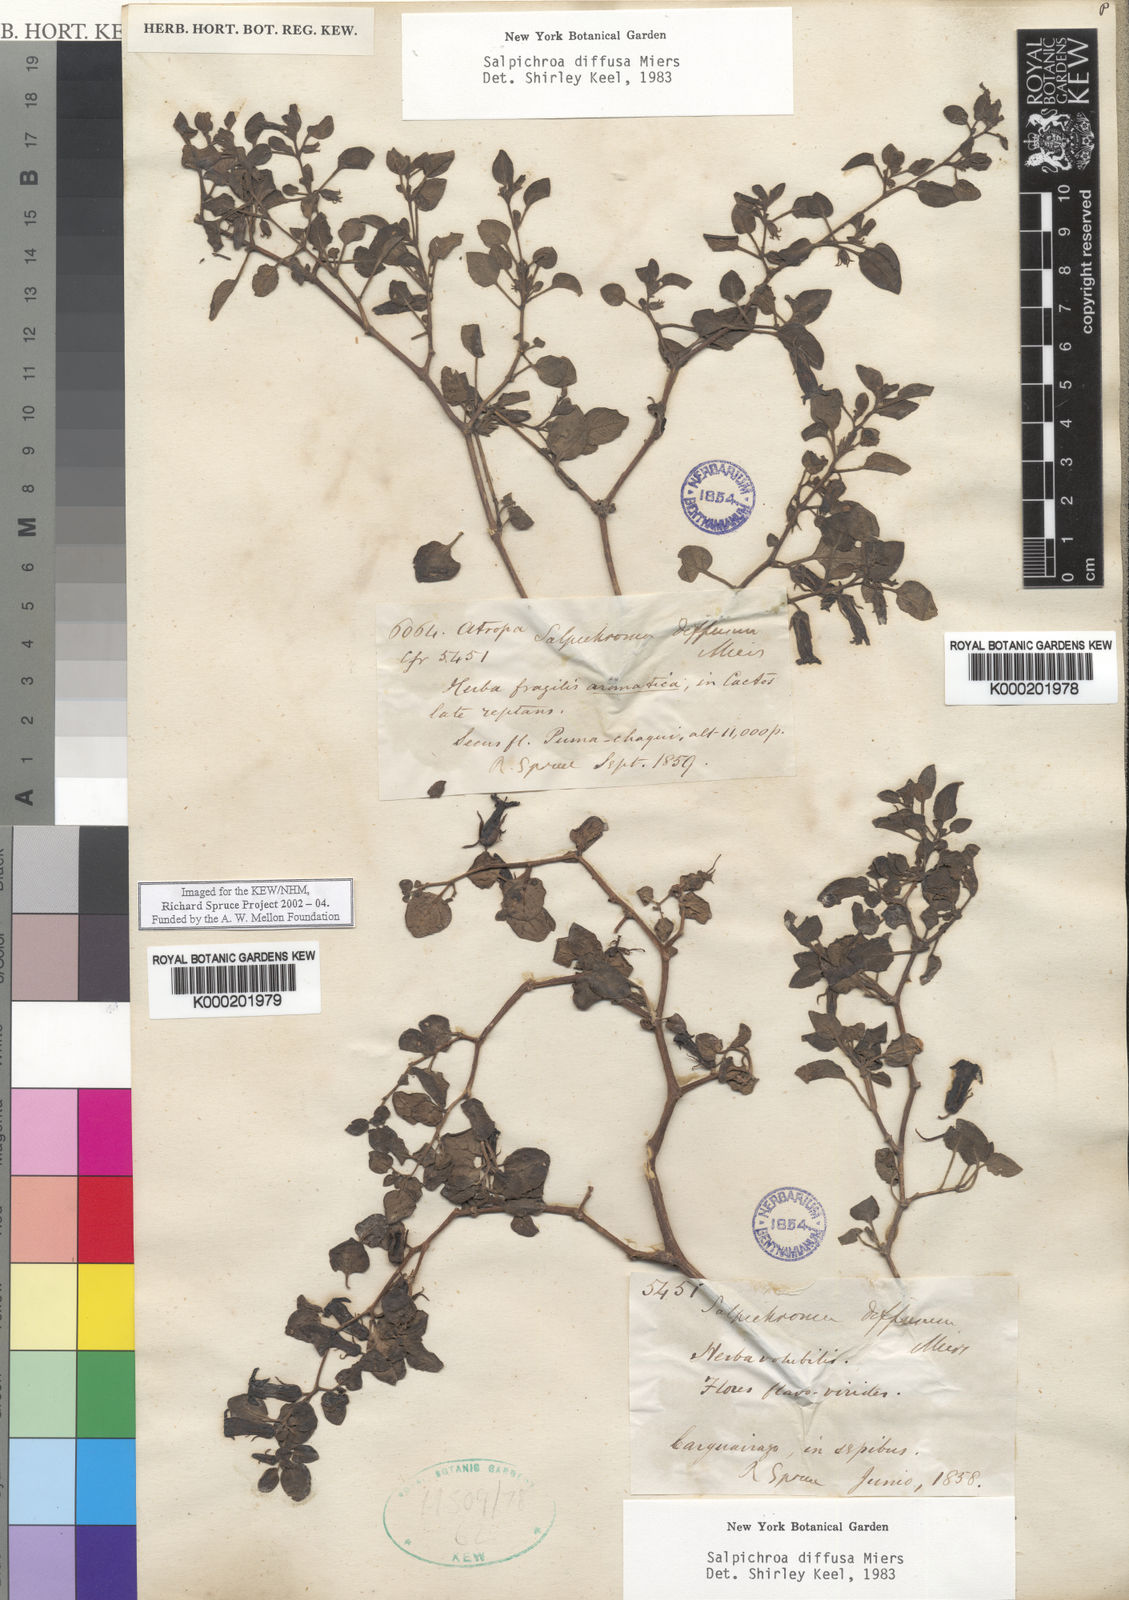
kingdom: Plantae
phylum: Tracheophyta
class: Magnoliopsida
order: Solanales
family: Solanaceae
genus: Salpichroa
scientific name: Salpichroa
